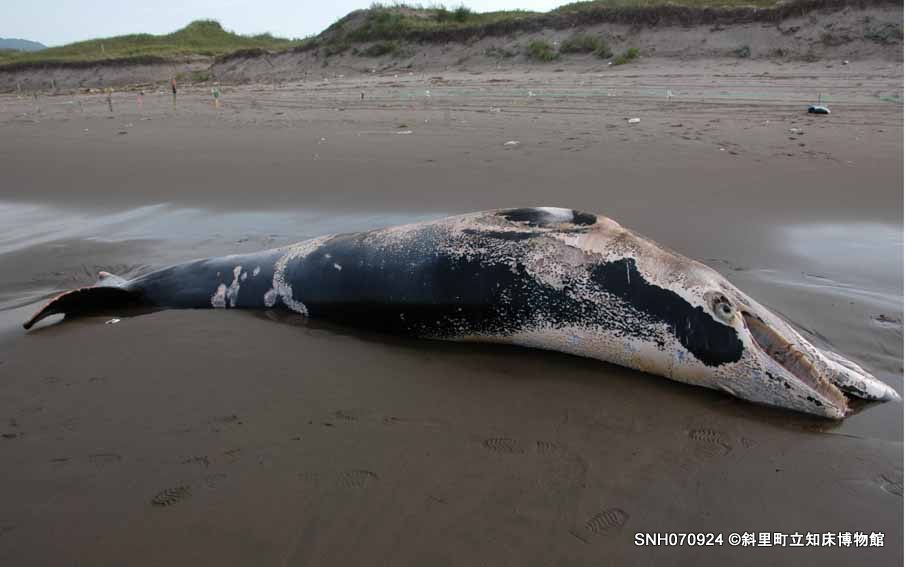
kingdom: Animalia
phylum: Chordata
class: Mammalia
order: Cetacea
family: Kogiidae
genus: Kogia
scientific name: Kogia sima
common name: Dwarf sperm whale
